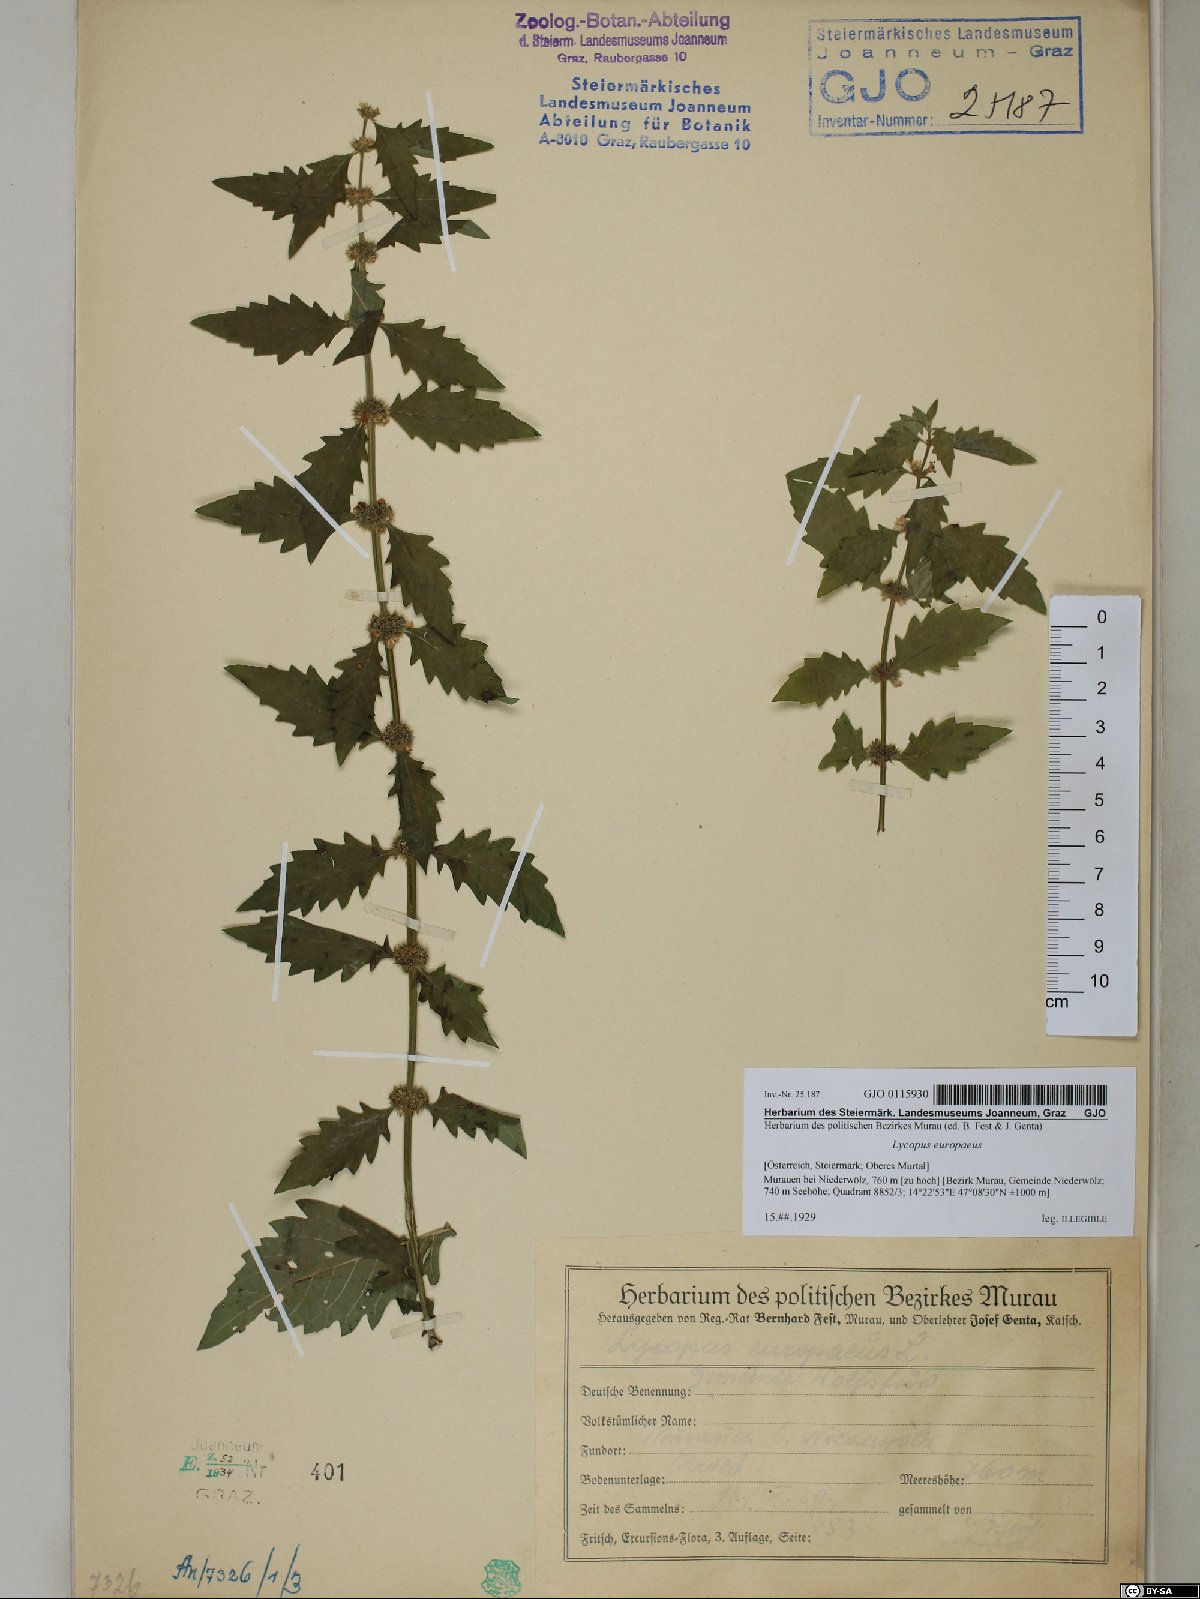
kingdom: Plantae
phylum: Tracheophyta
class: Magnoliopsida
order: Lamiales
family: Lamiaceae
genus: Lycopus
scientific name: Lycopus europaeus
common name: European bugleweed
